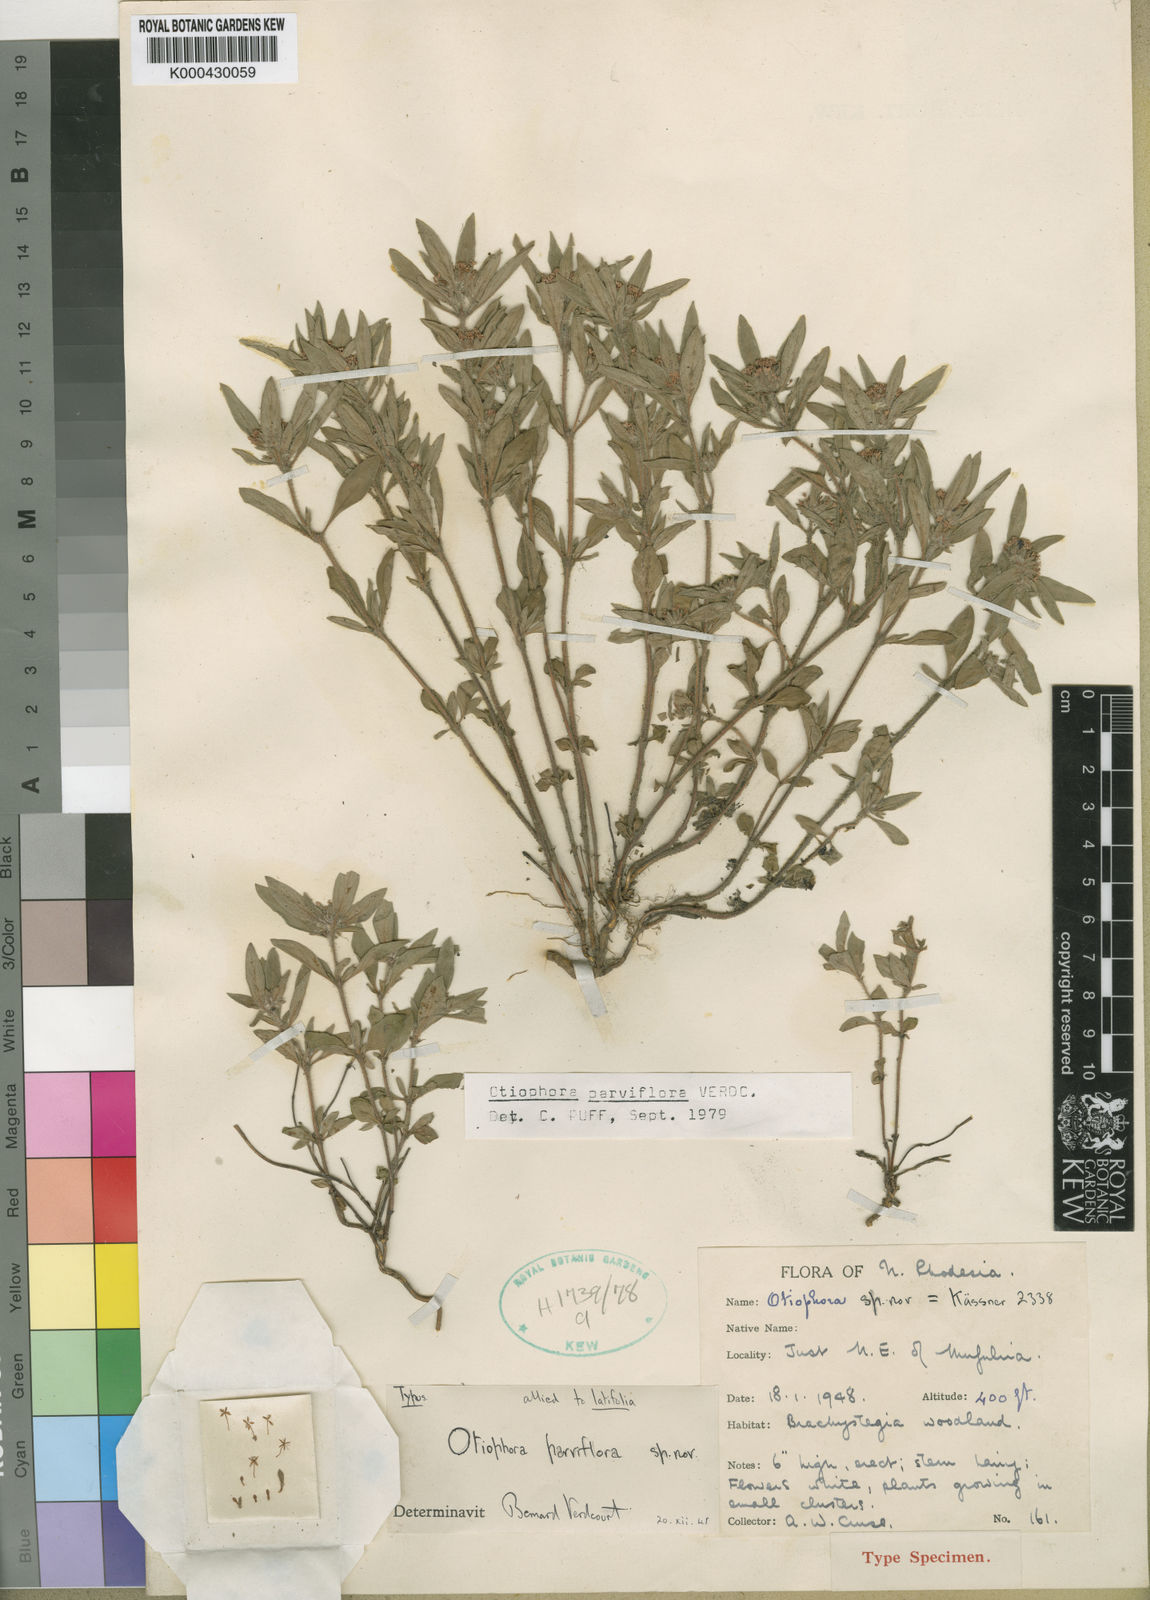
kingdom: Plantae
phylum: Tracheophyta
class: Magnoliopsida
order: Gentianales
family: Rubiaceae
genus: Otiophora
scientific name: Otiophora parviflora
